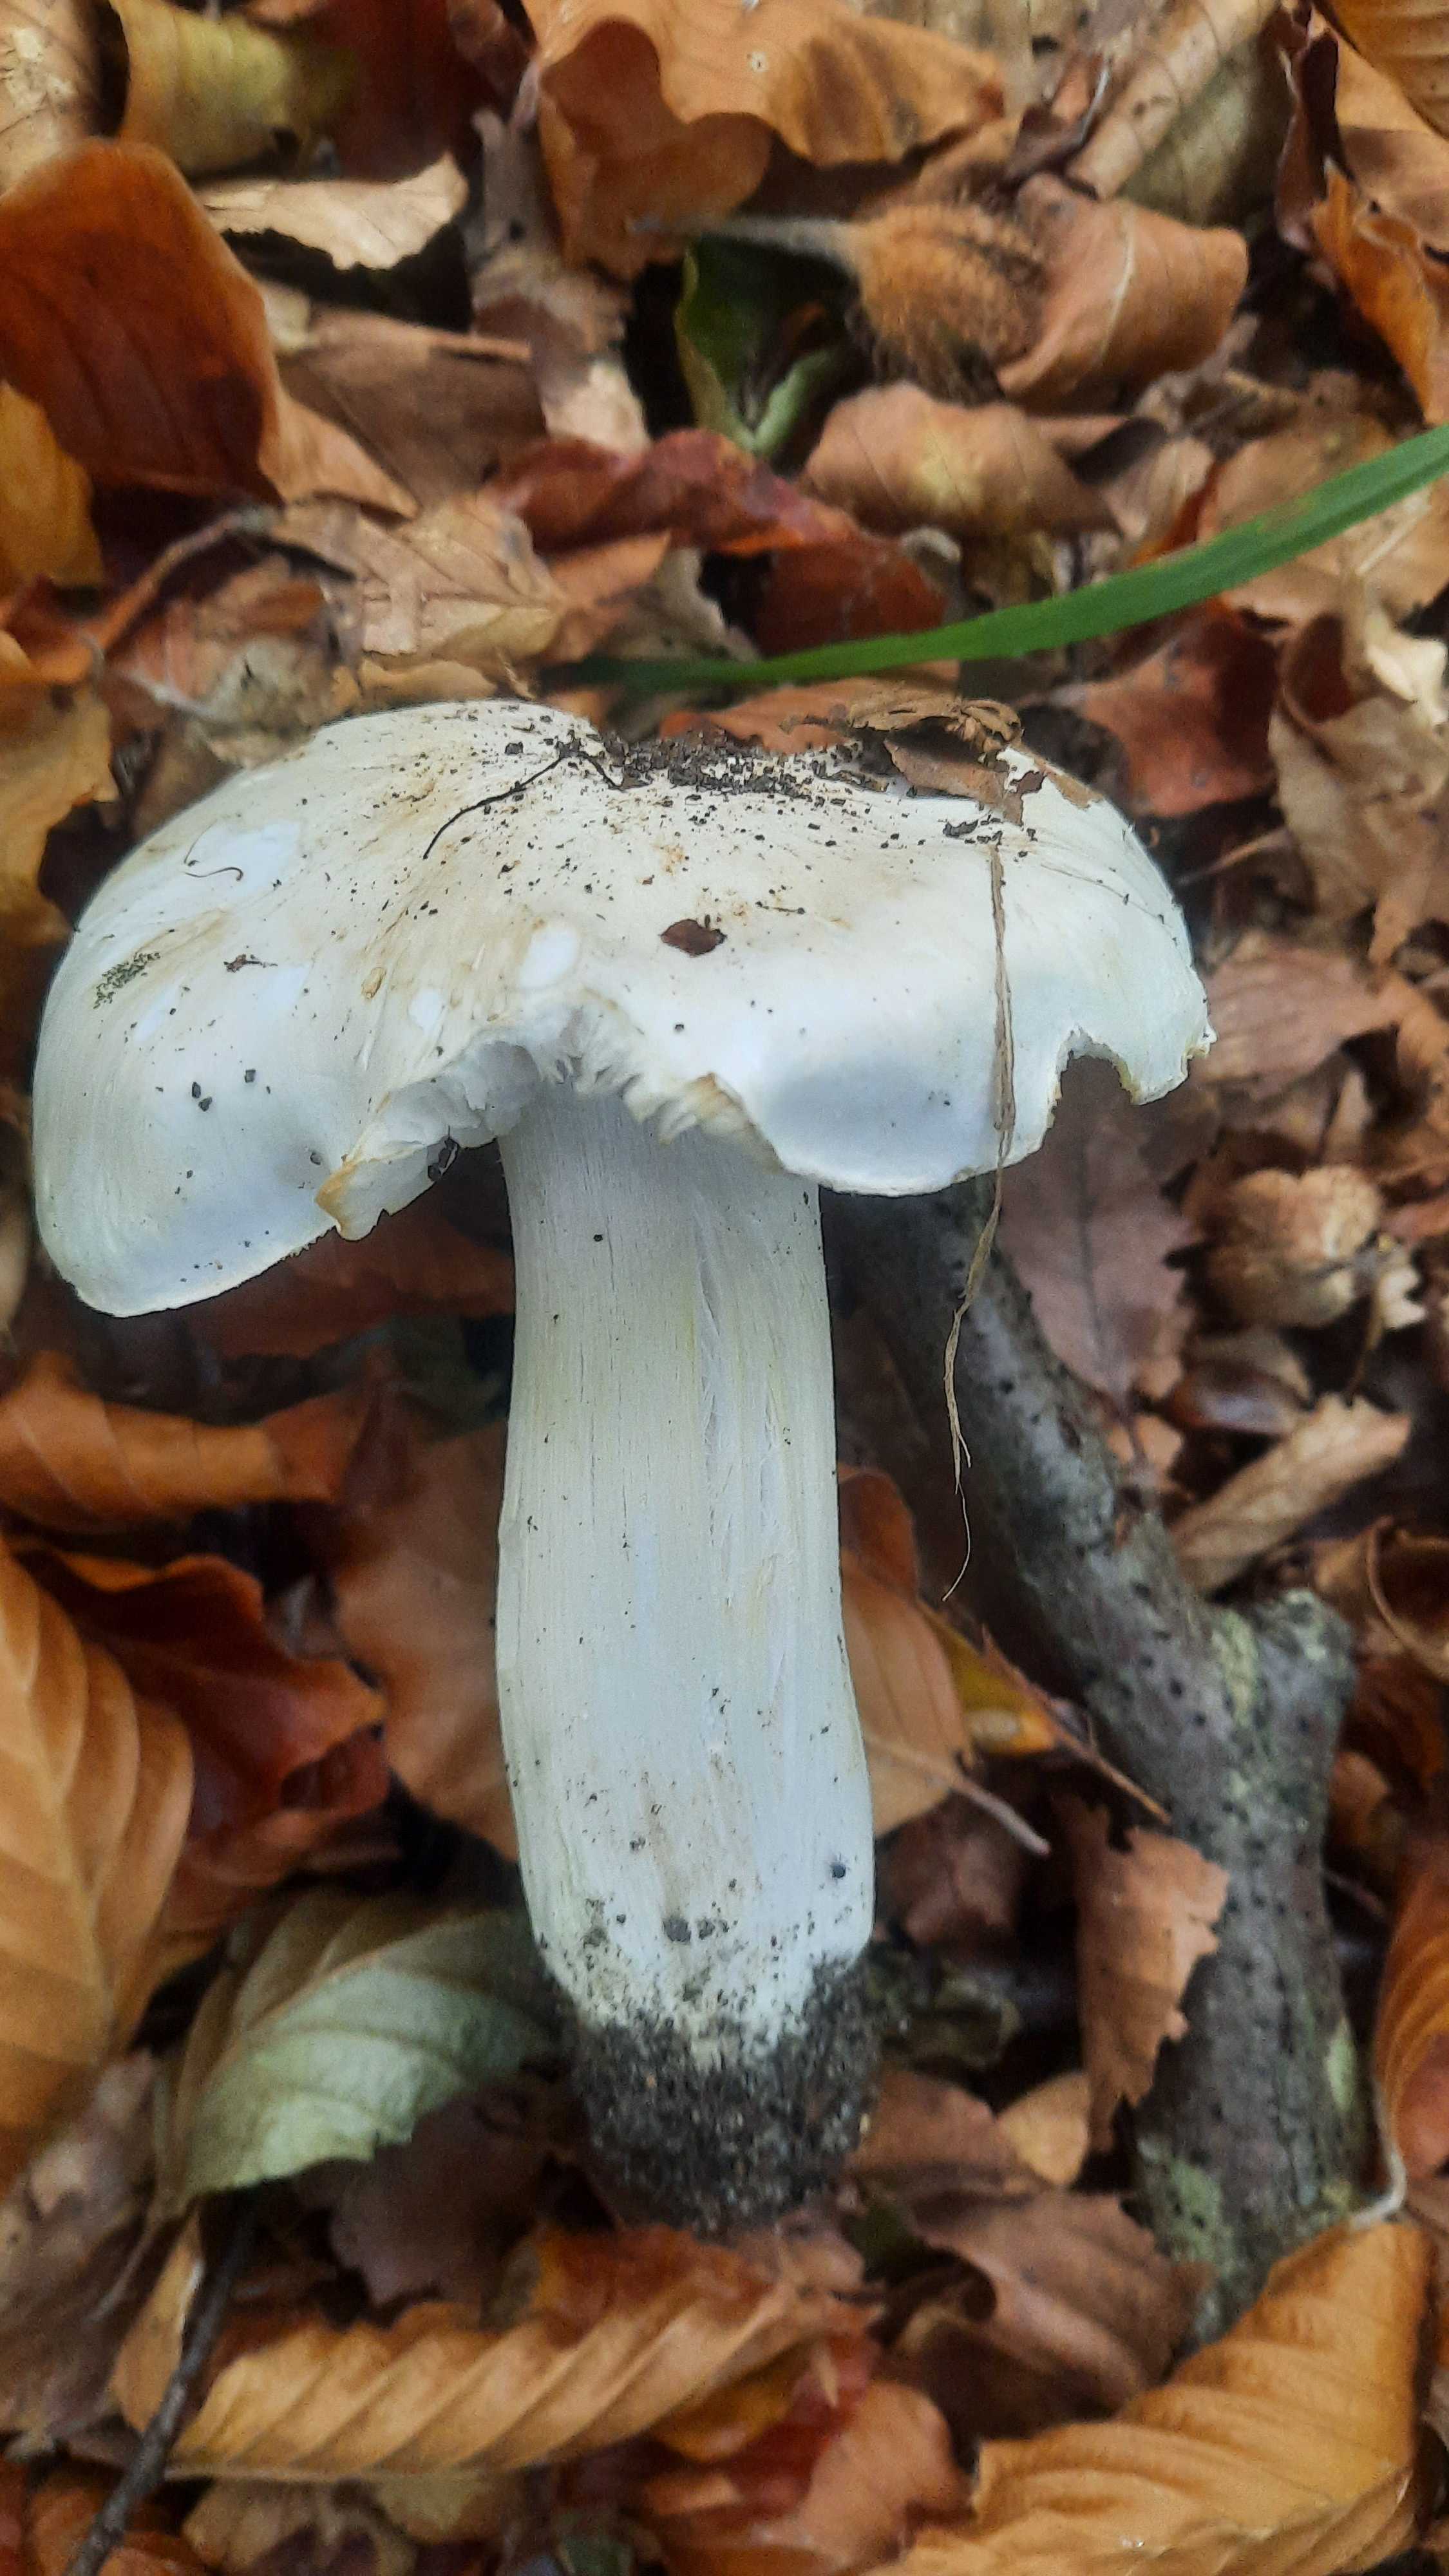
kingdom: Fungi
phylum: Basidiomycota
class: Agaricomycetes
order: Agaricales
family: Tricholomataceae
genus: Tricholoma
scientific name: Tricholoma columbetta
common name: silke-ridderhat
